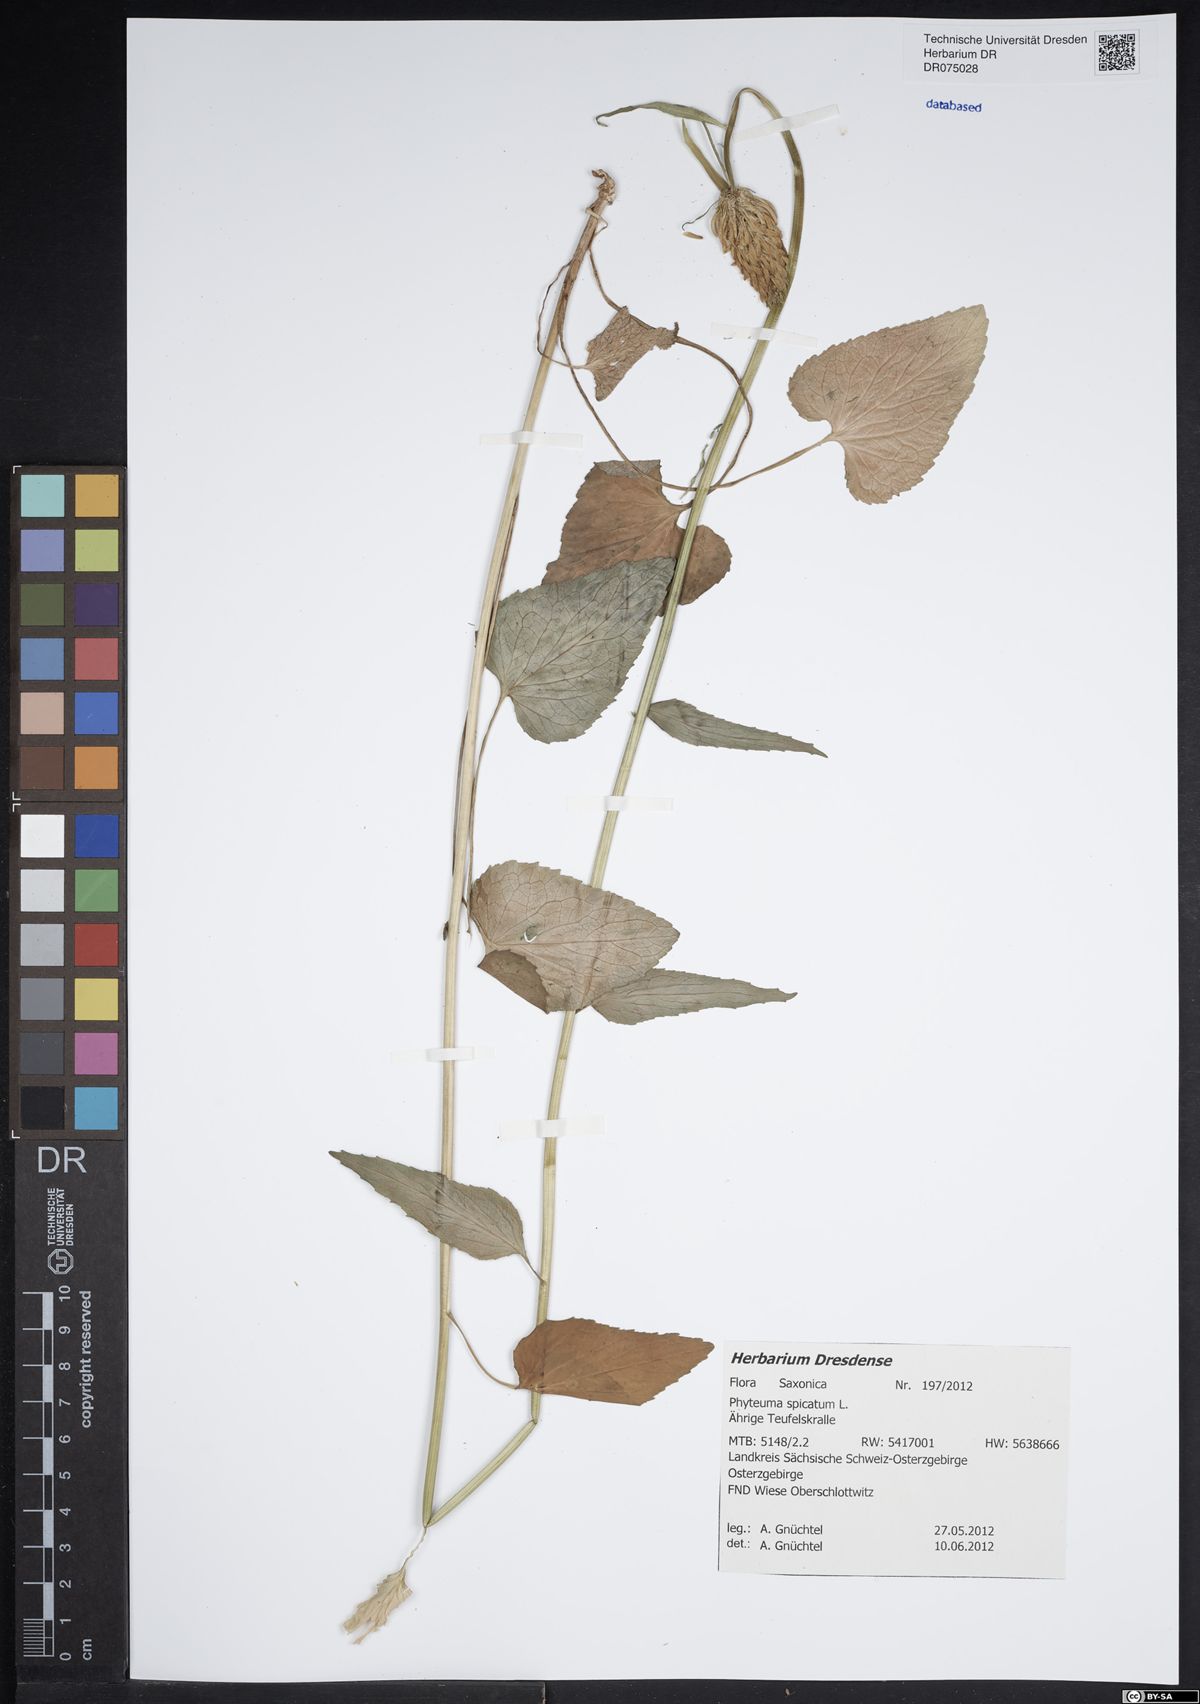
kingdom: Plantae
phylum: Tracheophyta
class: Magnoliopsida
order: Asterales
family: Campanulaceae
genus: Phyteuma
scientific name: Phyteuma spicatum
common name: Spiked rampion
